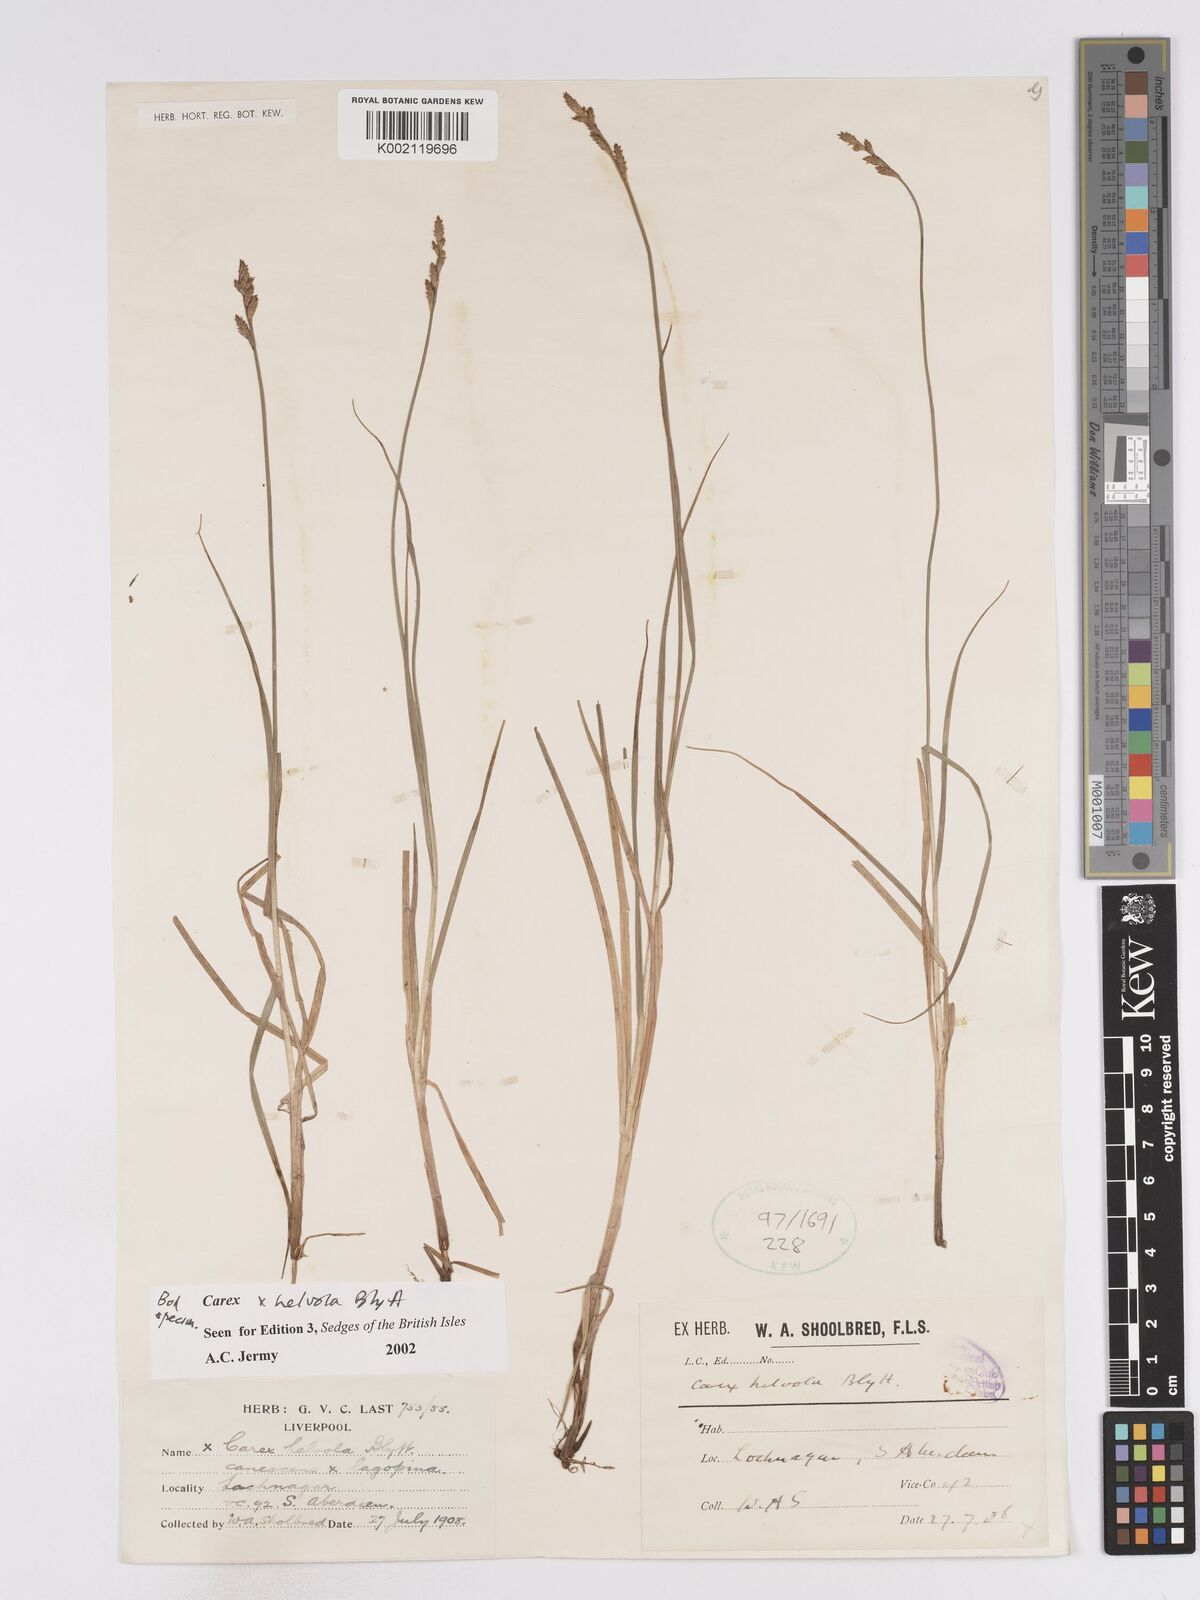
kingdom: Plantae
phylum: Tracheophyta
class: Liliopsida
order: Poales
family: Cyperaceae
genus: Carex
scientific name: Carex
